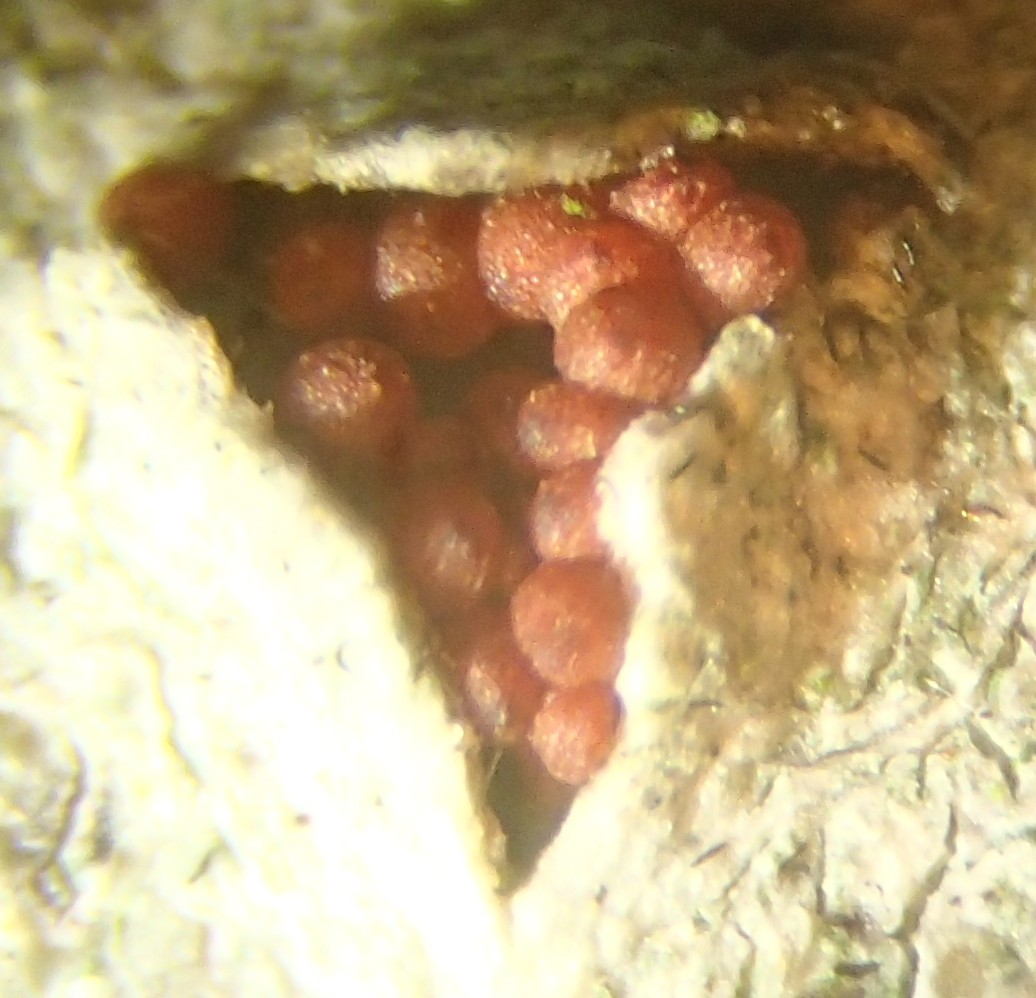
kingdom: Fungi
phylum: Ascomycota
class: Sordariomycetes
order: Hypocreales
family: Nectriaceae
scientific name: Nectriaceae
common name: cinnobersvampfamilien
